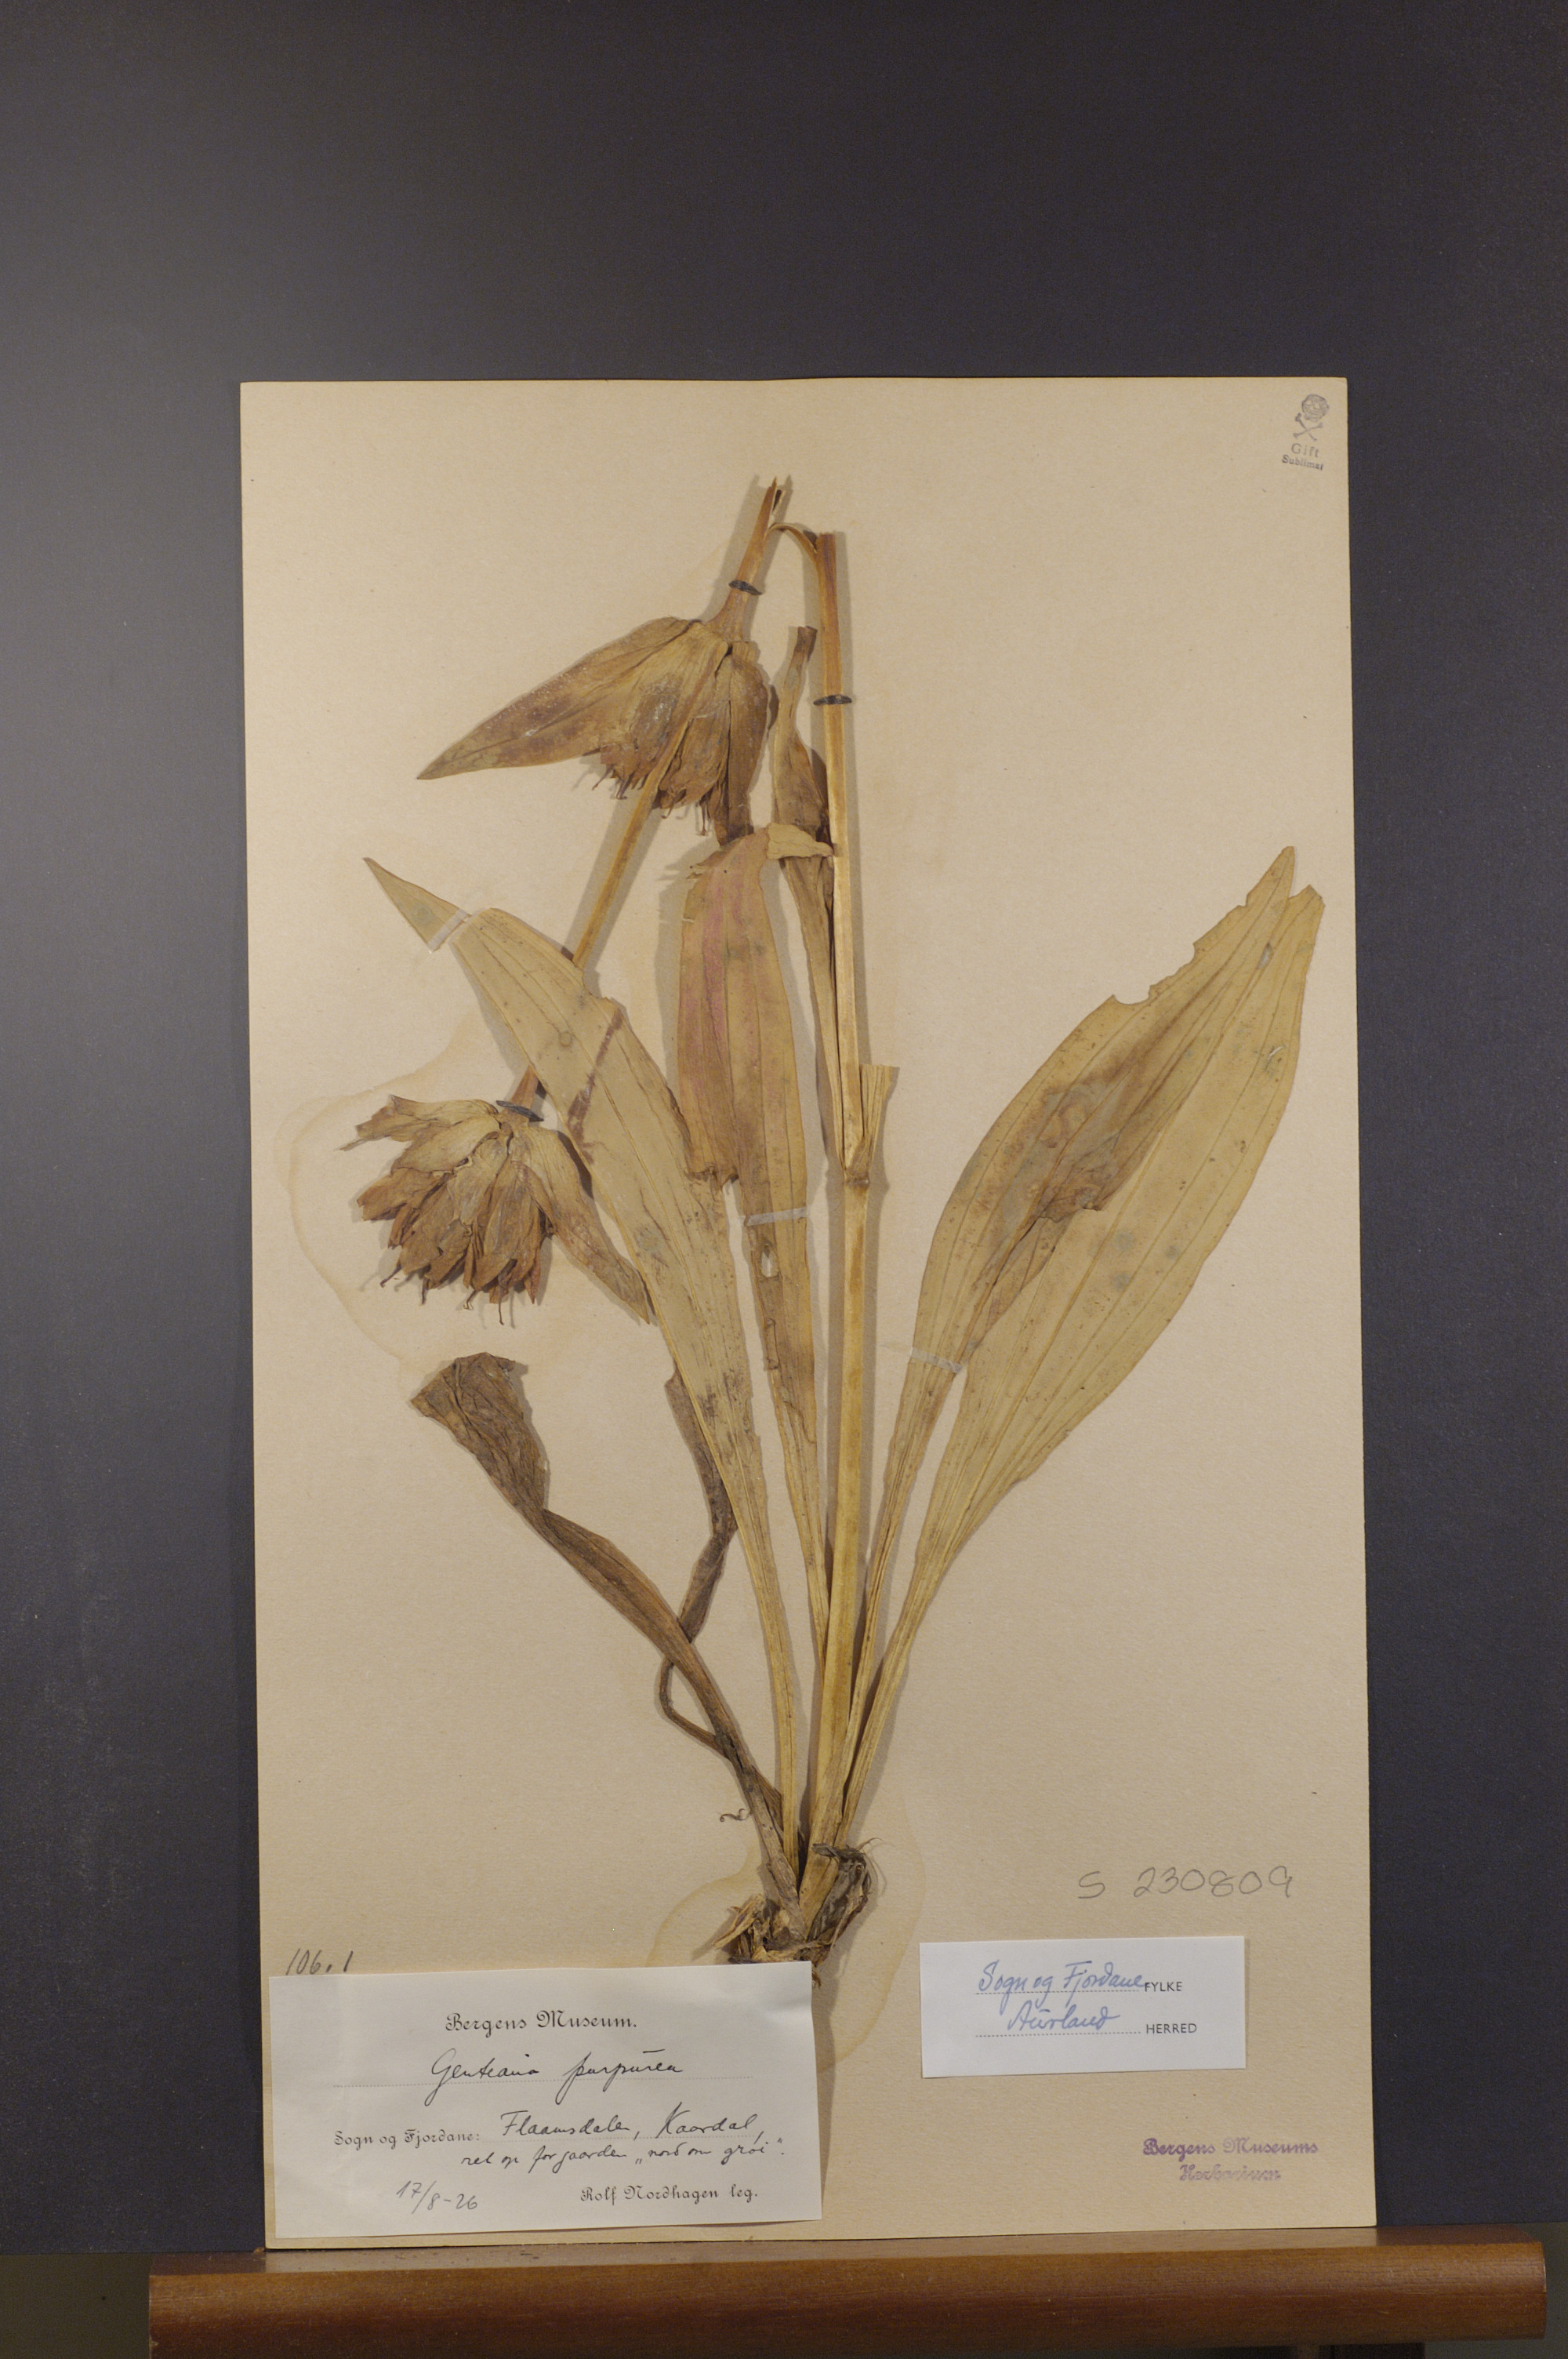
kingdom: Plantae
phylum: Tracheophyta
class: Magnoliopsida
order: Gentianales
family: Gentianaceae
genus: Gentiana
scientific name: Gentiana purpurea
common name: Purple gentian
